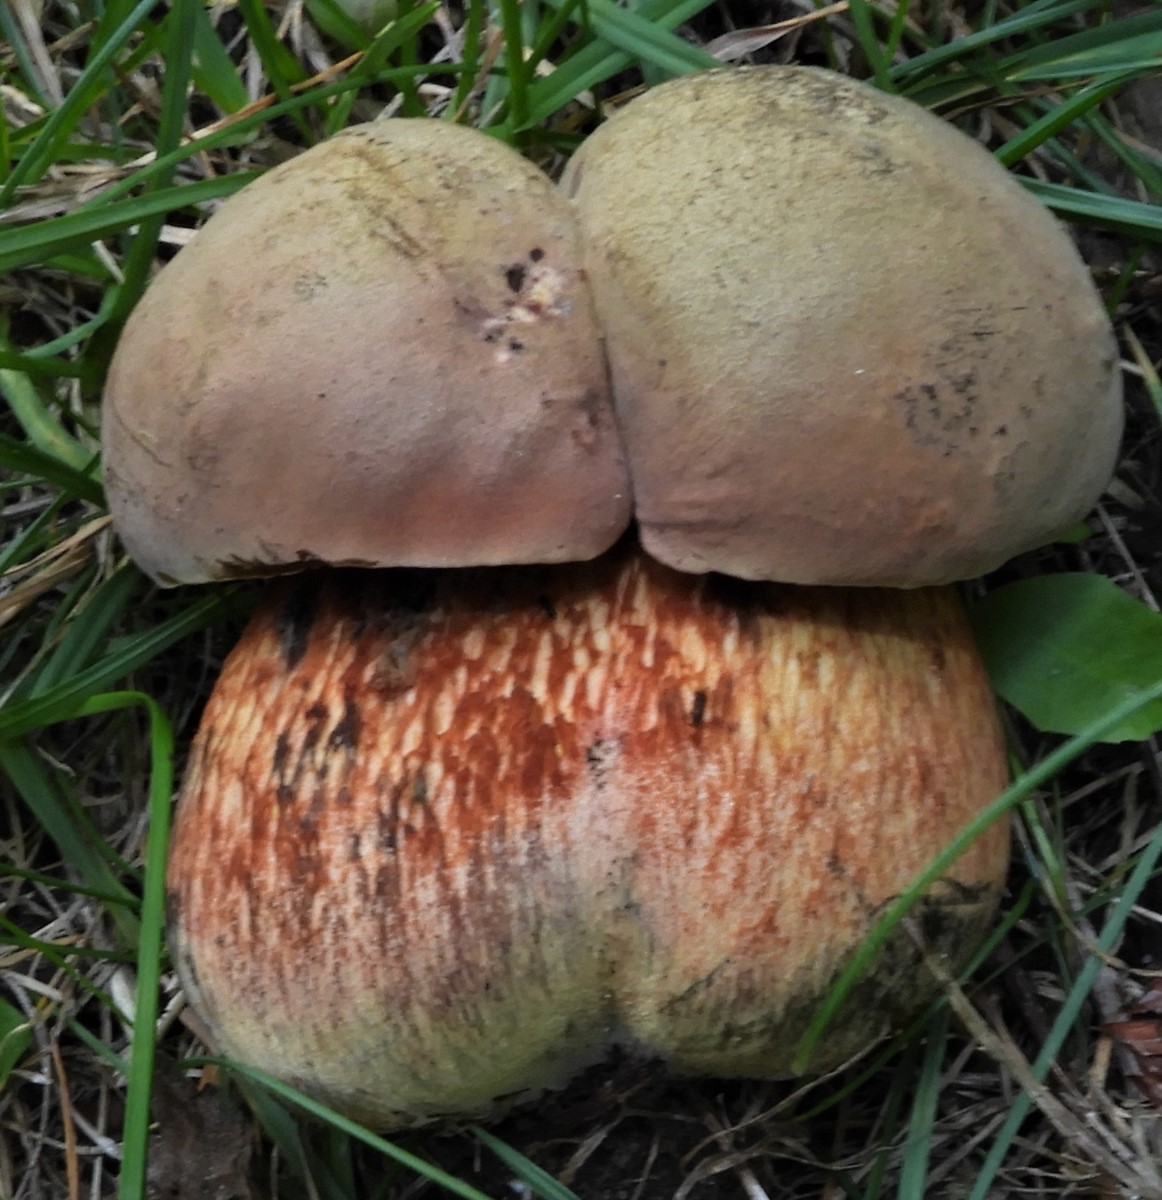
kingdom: Fungi
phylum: Basidiomycota
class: Agaricomycetes
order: Boletales
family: Boletaceae
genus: Suillellus
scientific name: Suillellus luridus
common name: netstokket indigorørhat
